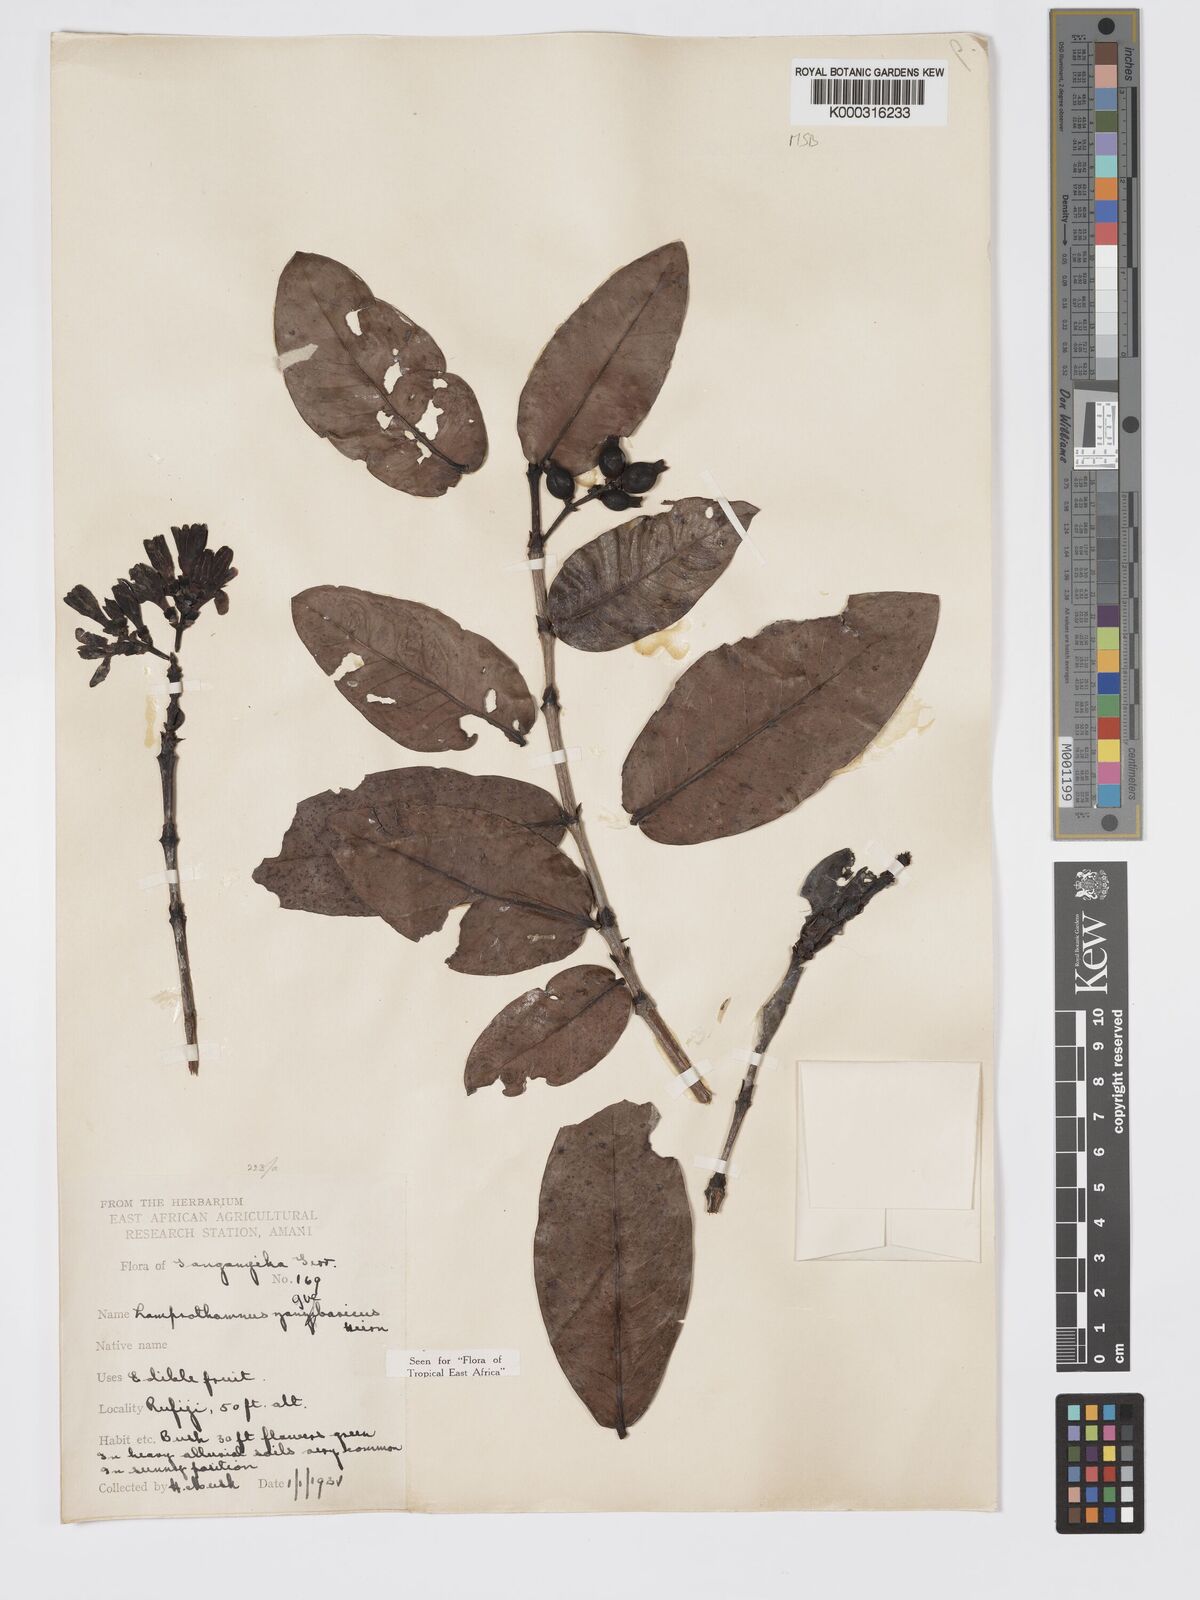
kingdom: Plantae
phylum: Tracheophyta
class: Magnoliopsida
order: Gentianales
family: Rubiaceae
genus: Lamprothamnus
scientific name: Lamprothamnus zanguebaricus
